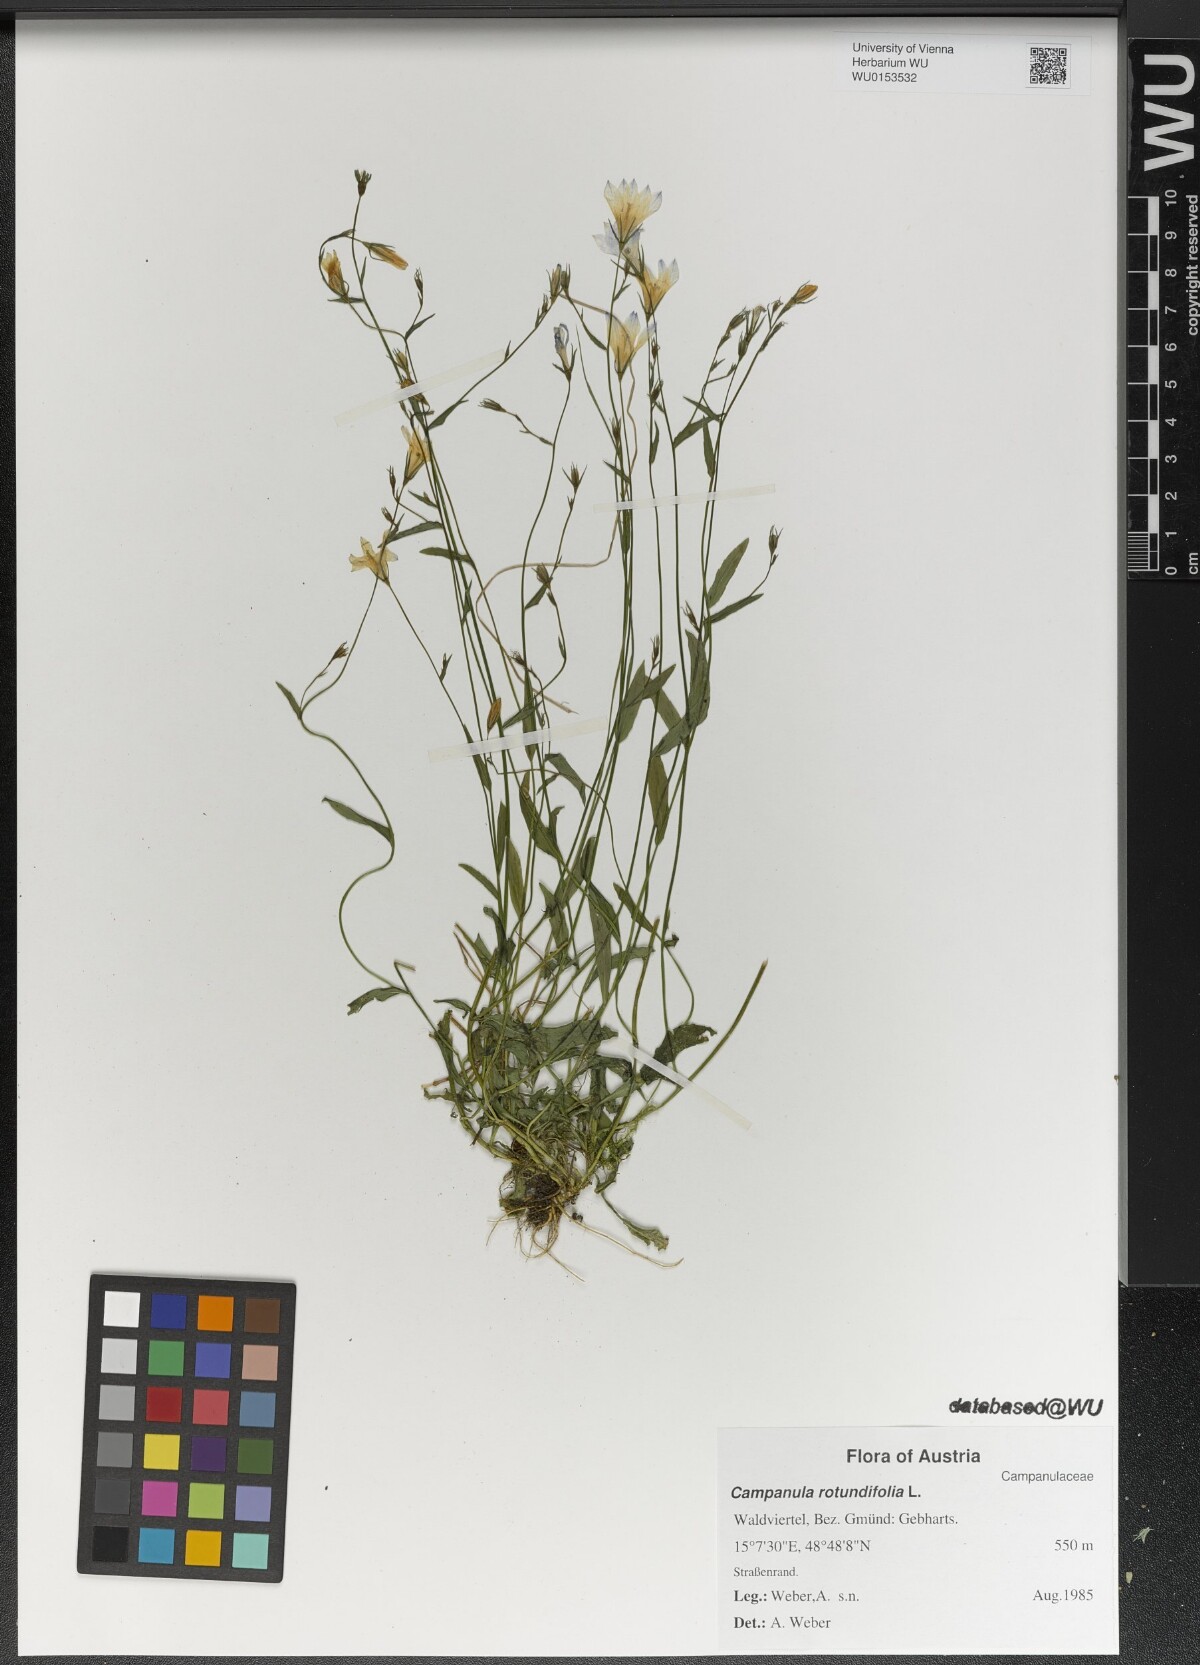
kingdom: Plantae
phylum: Tracheophyta
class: Magnoliopsida
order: Asterales
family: Campanulaceae
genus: Campanula
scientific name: Campanula rotundifolia
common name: Harebell
